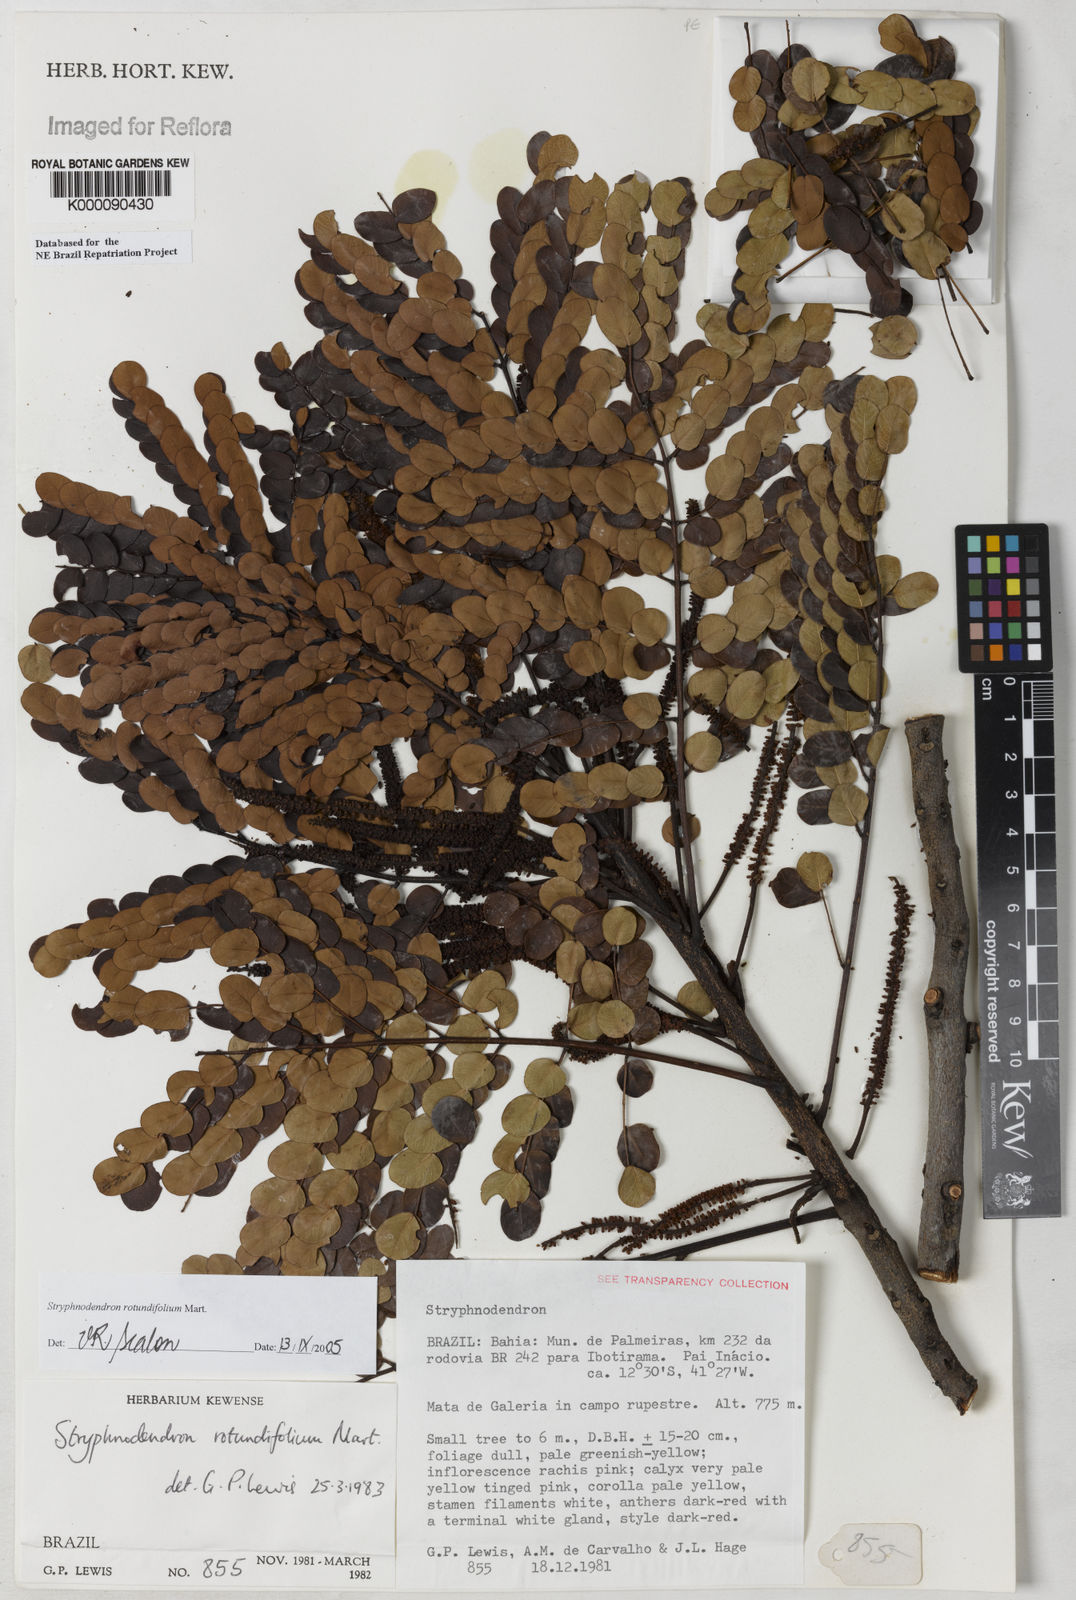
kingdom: Plantae
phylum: Tracheophyta
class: Magnoliopsida
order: Fabales
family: Fabaceae
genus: Stryphnodendron
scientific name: Stryphnodendron rotundifolium
